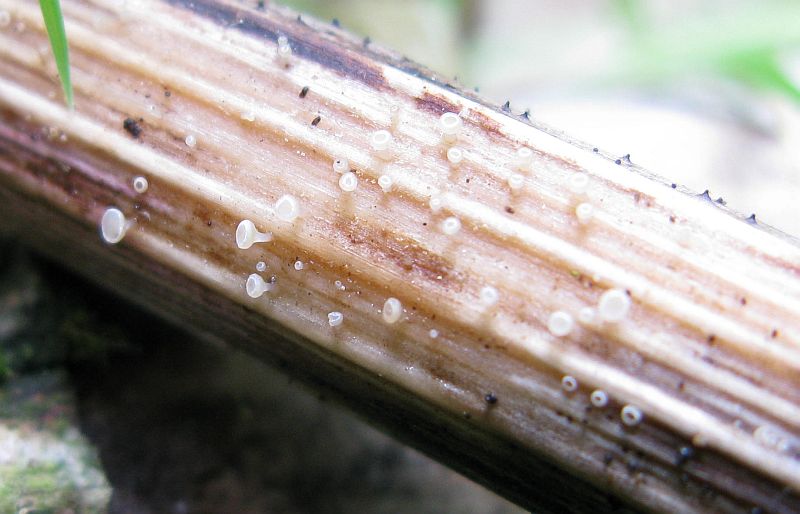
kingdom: Fungi
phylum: Ascomycota
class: Leotiomycetes
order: Helotiales
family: Helotiaceae
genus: Cyathicula
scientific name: Cyathicula cyathoidea
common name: pokal-stilkskive
